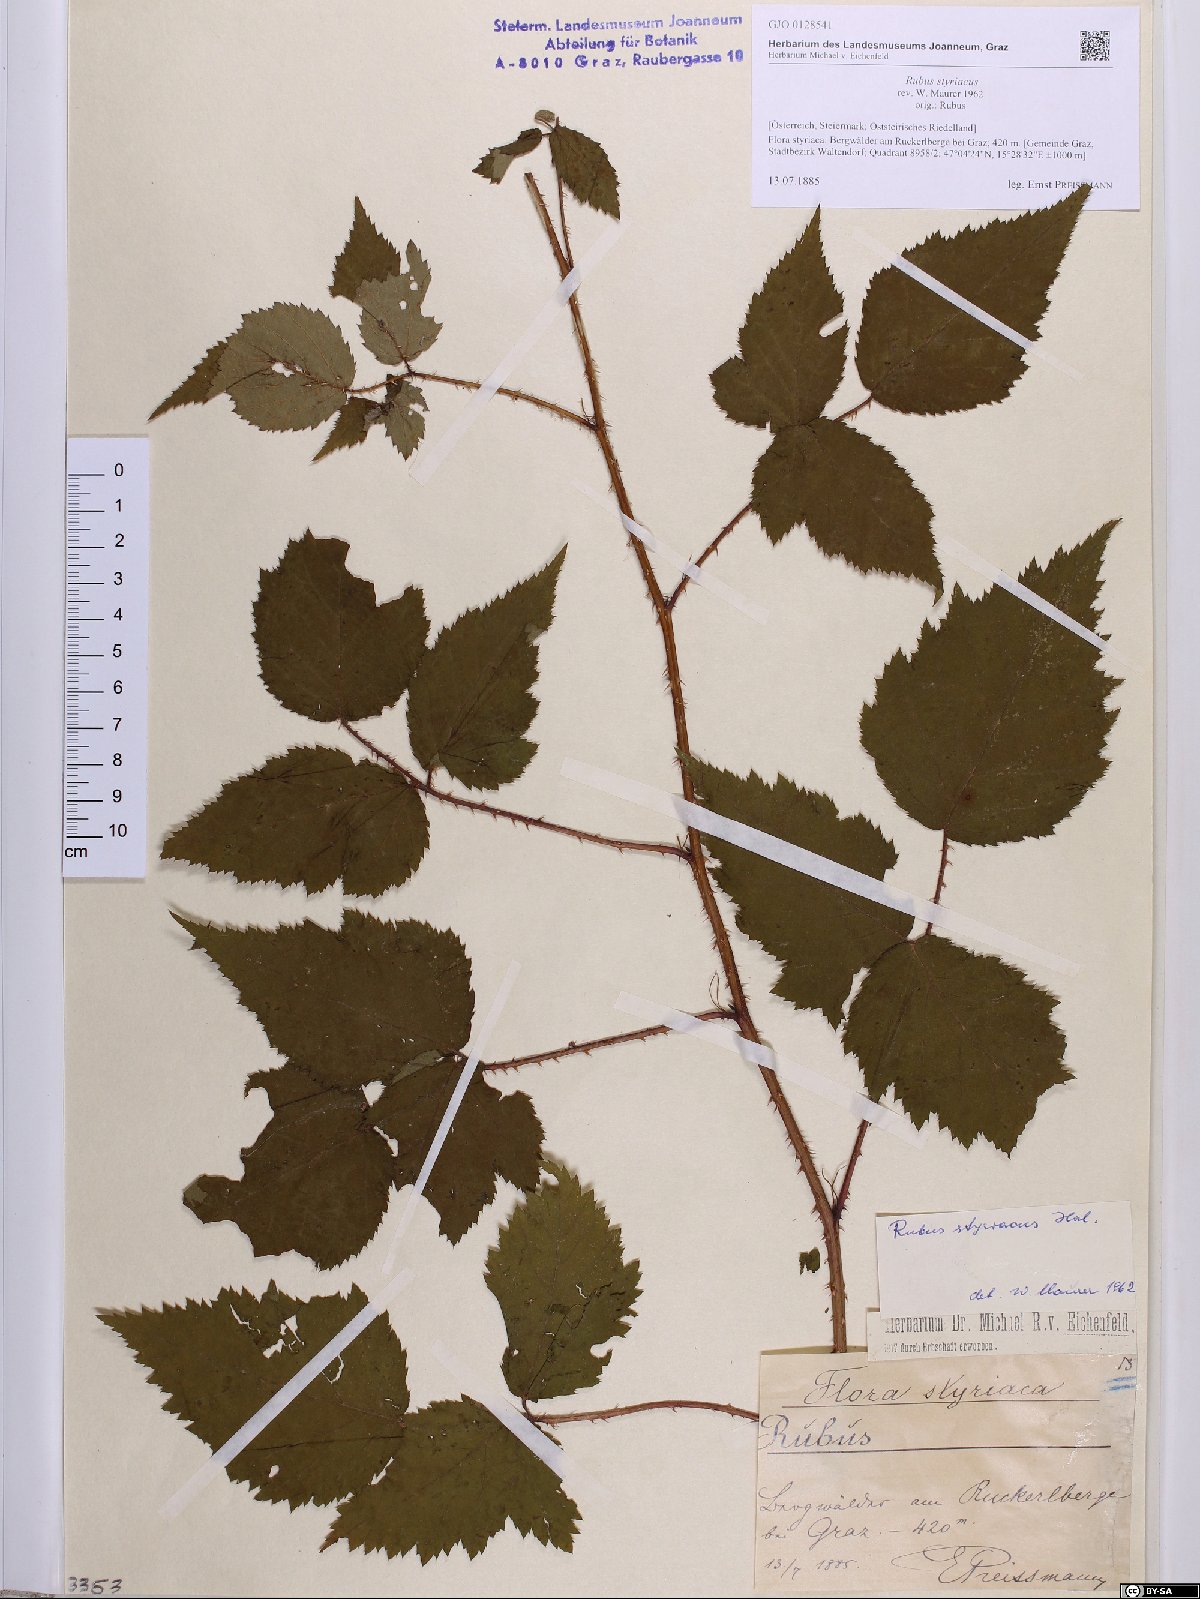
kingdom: Plantae
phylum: Tracheophyta
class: Magnoliopsida
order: Rosales
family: Rosaceae
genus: Rubus
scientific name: Rubus styriacus
